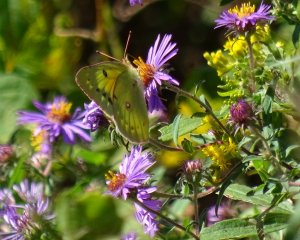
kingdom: Animalia
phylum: Arthropoda
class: Insecta
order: Lepidoptera
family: Pieridae
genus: Colias
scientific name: Colias eurytheme
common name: Orange Sulphur
